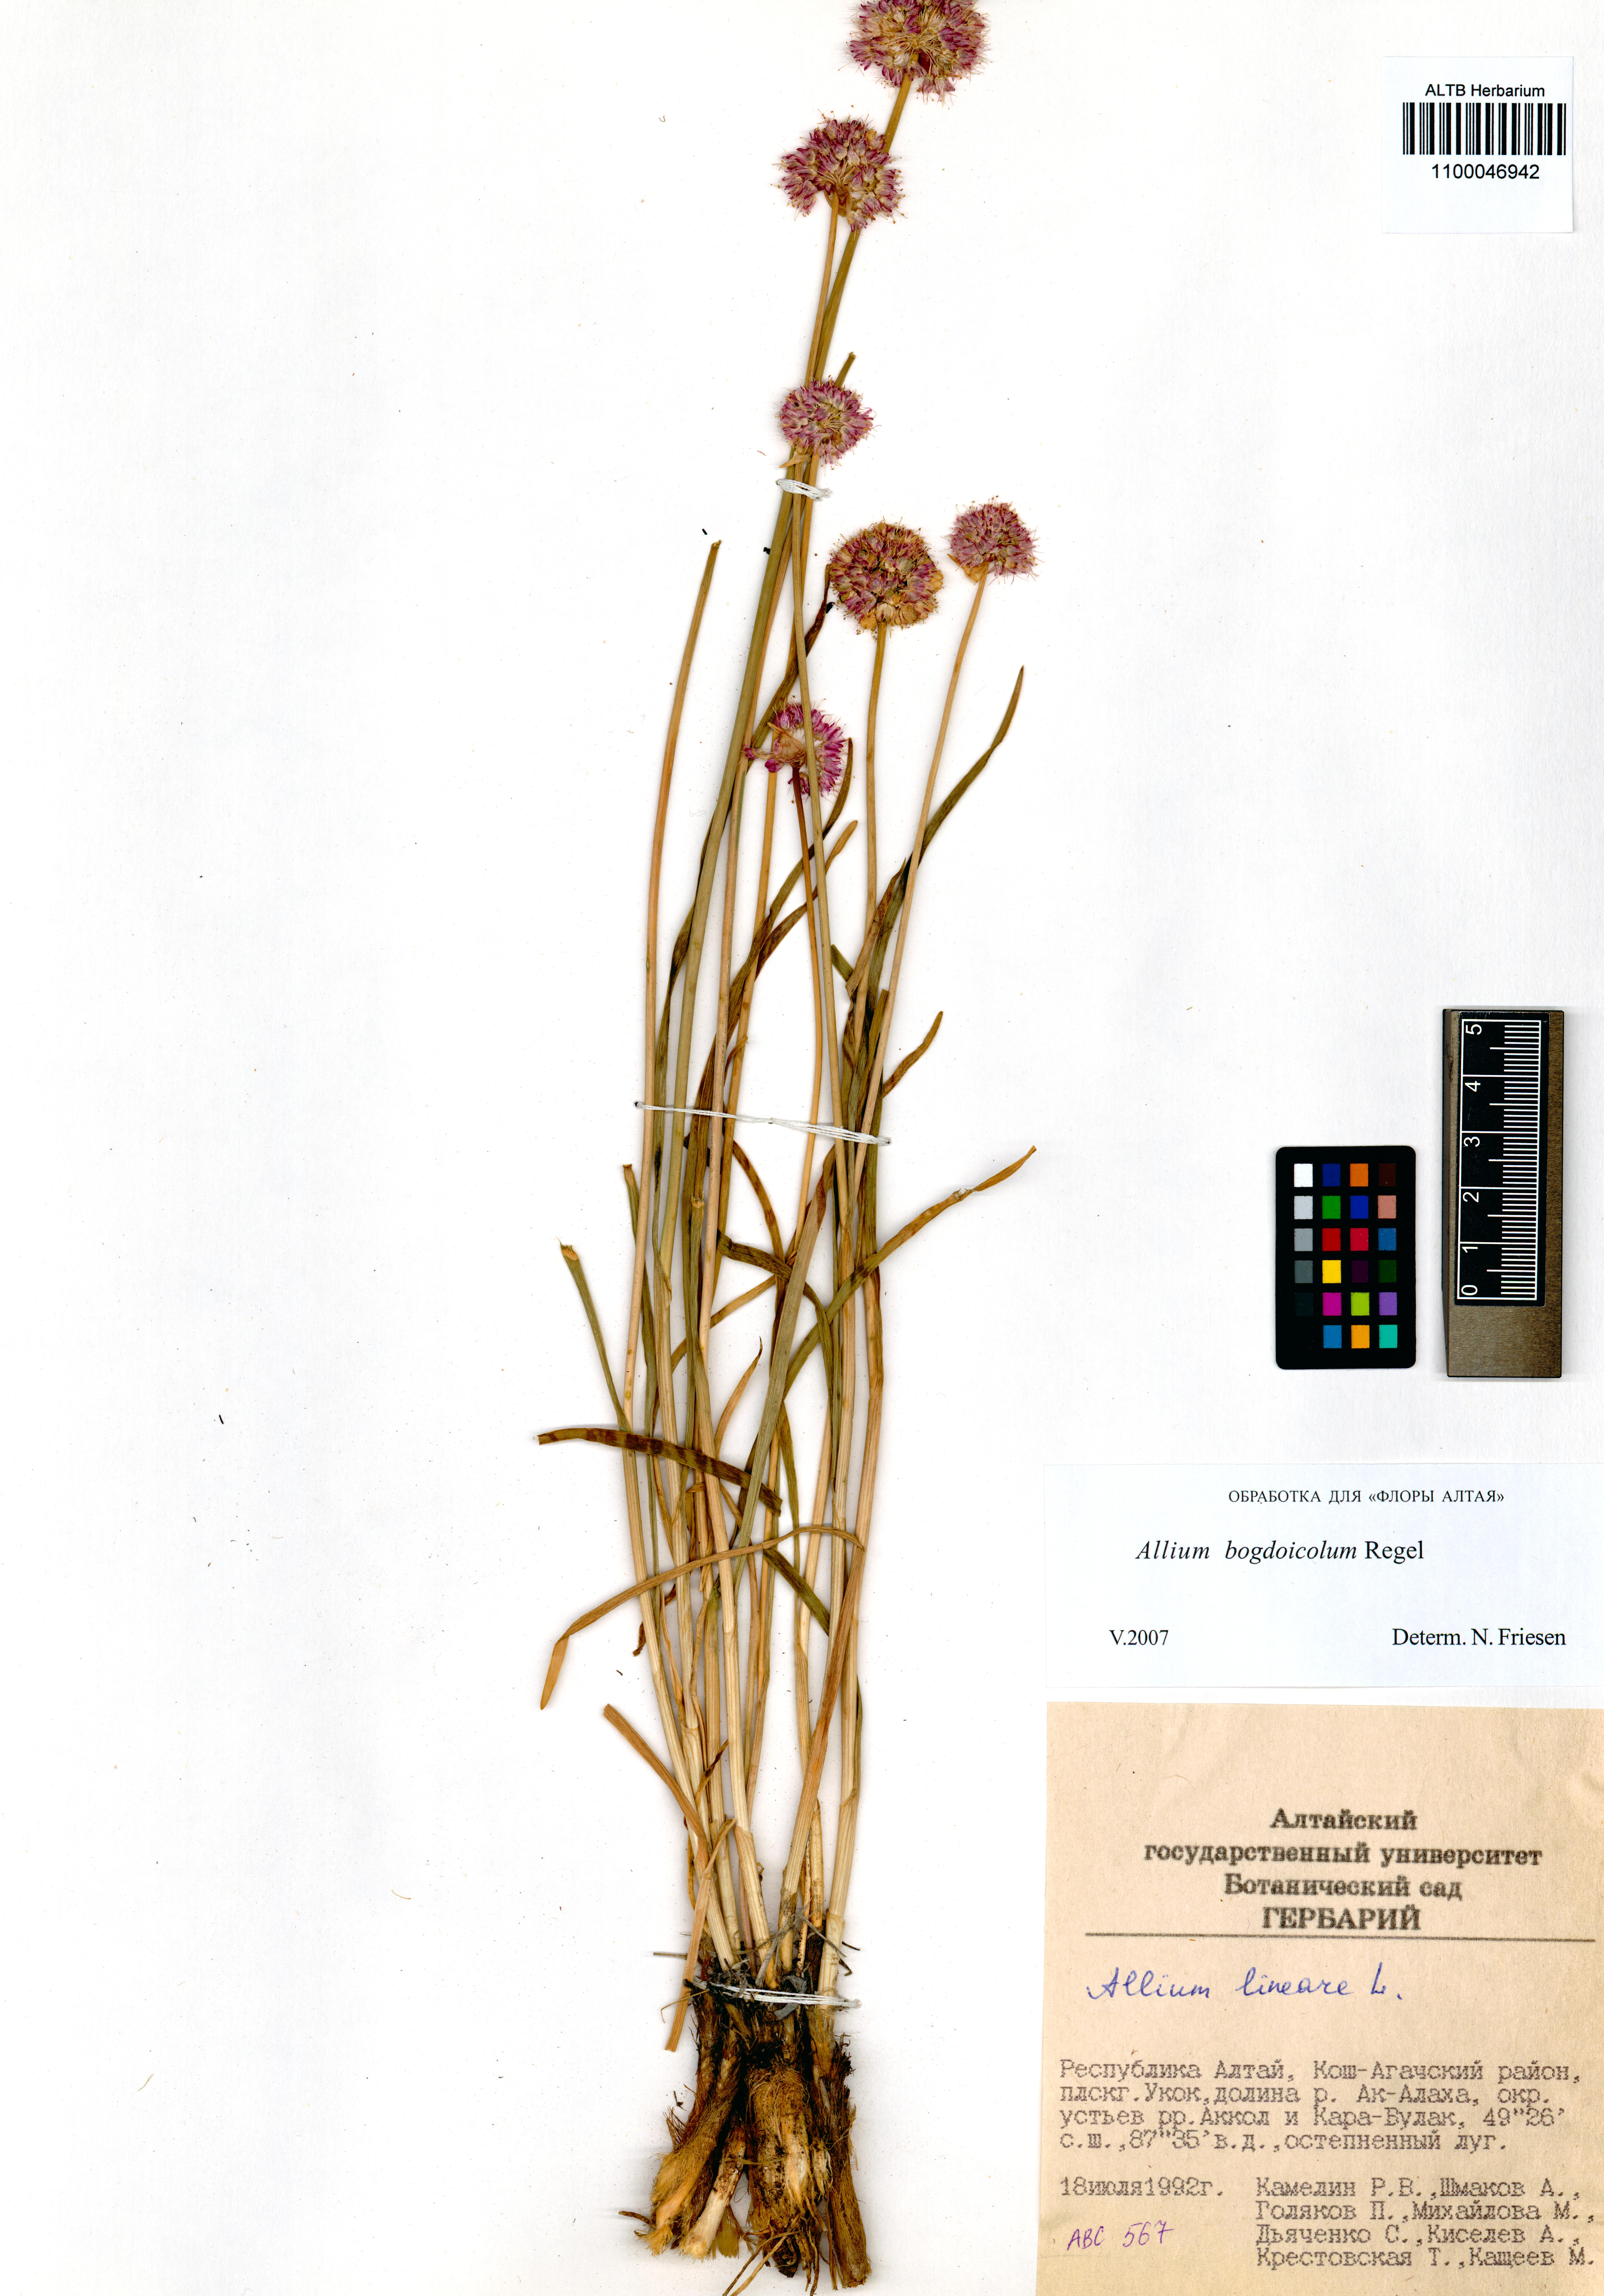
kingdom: Plantae
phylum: Tracheophyta
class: Liliopsida
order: Asparagales
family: Amaryllidaceae
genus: Allium
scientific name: Allium schrenkii
